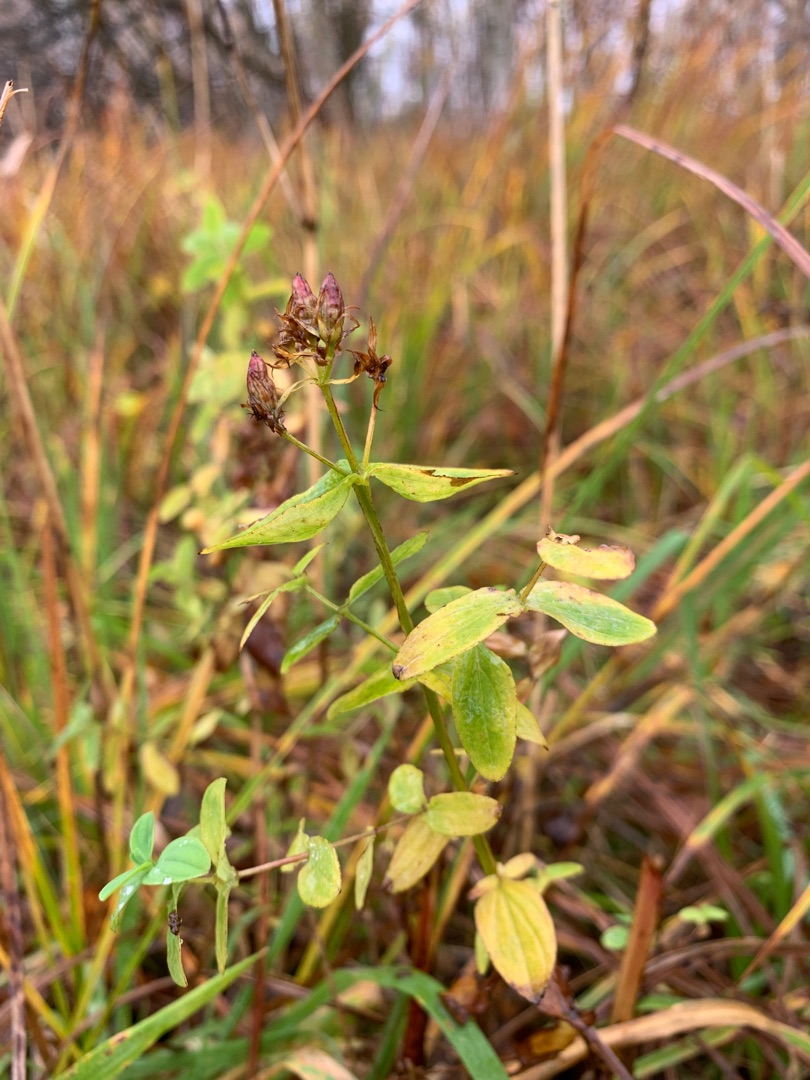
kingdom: Plantae
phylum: Tracheophyta
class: Magnoliopsida
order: Malpighiales
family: Hypericaceae
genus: Hypericum
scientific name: Hypericum tetrapterum
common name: Vinget perikon
